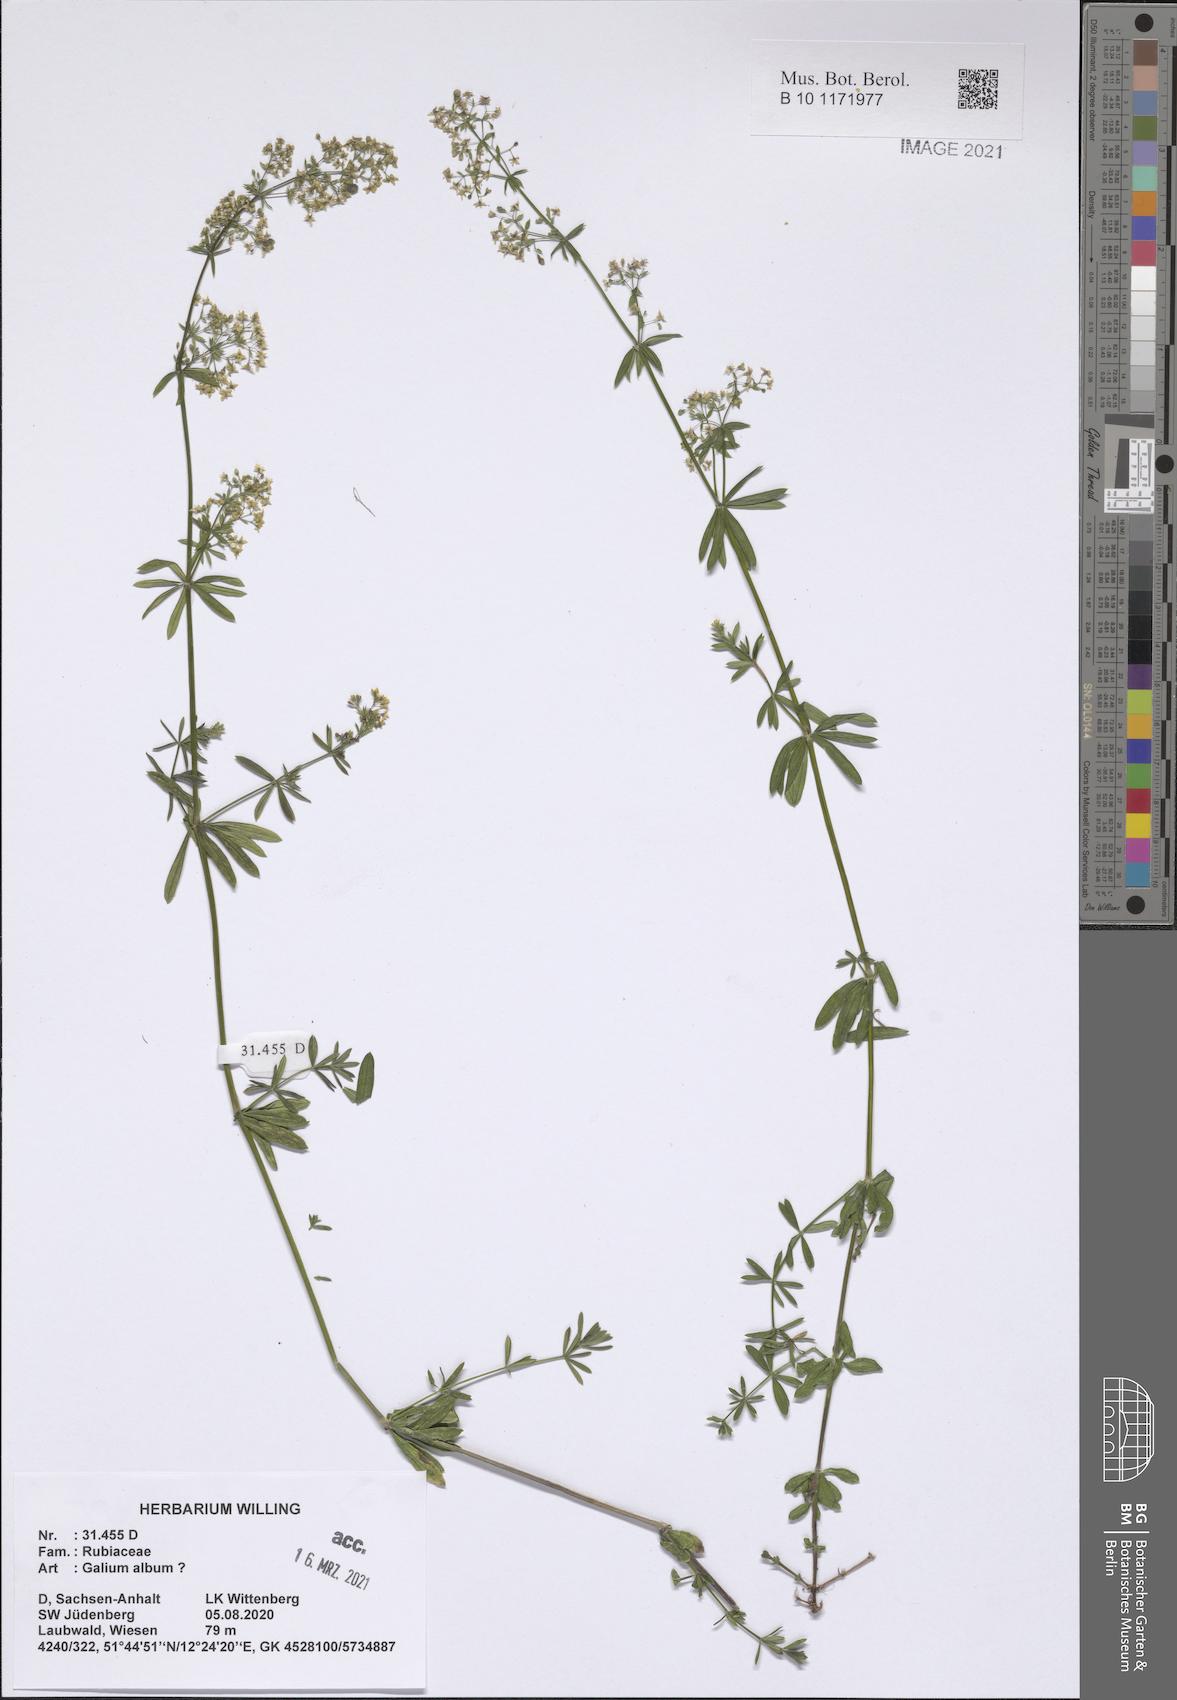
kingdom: Plantae
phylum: Tracheophyta
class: Magnoliopsida
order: Gentianales
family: Rubiaceae
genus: Galium
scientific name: Galium album
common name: White bedstraw
